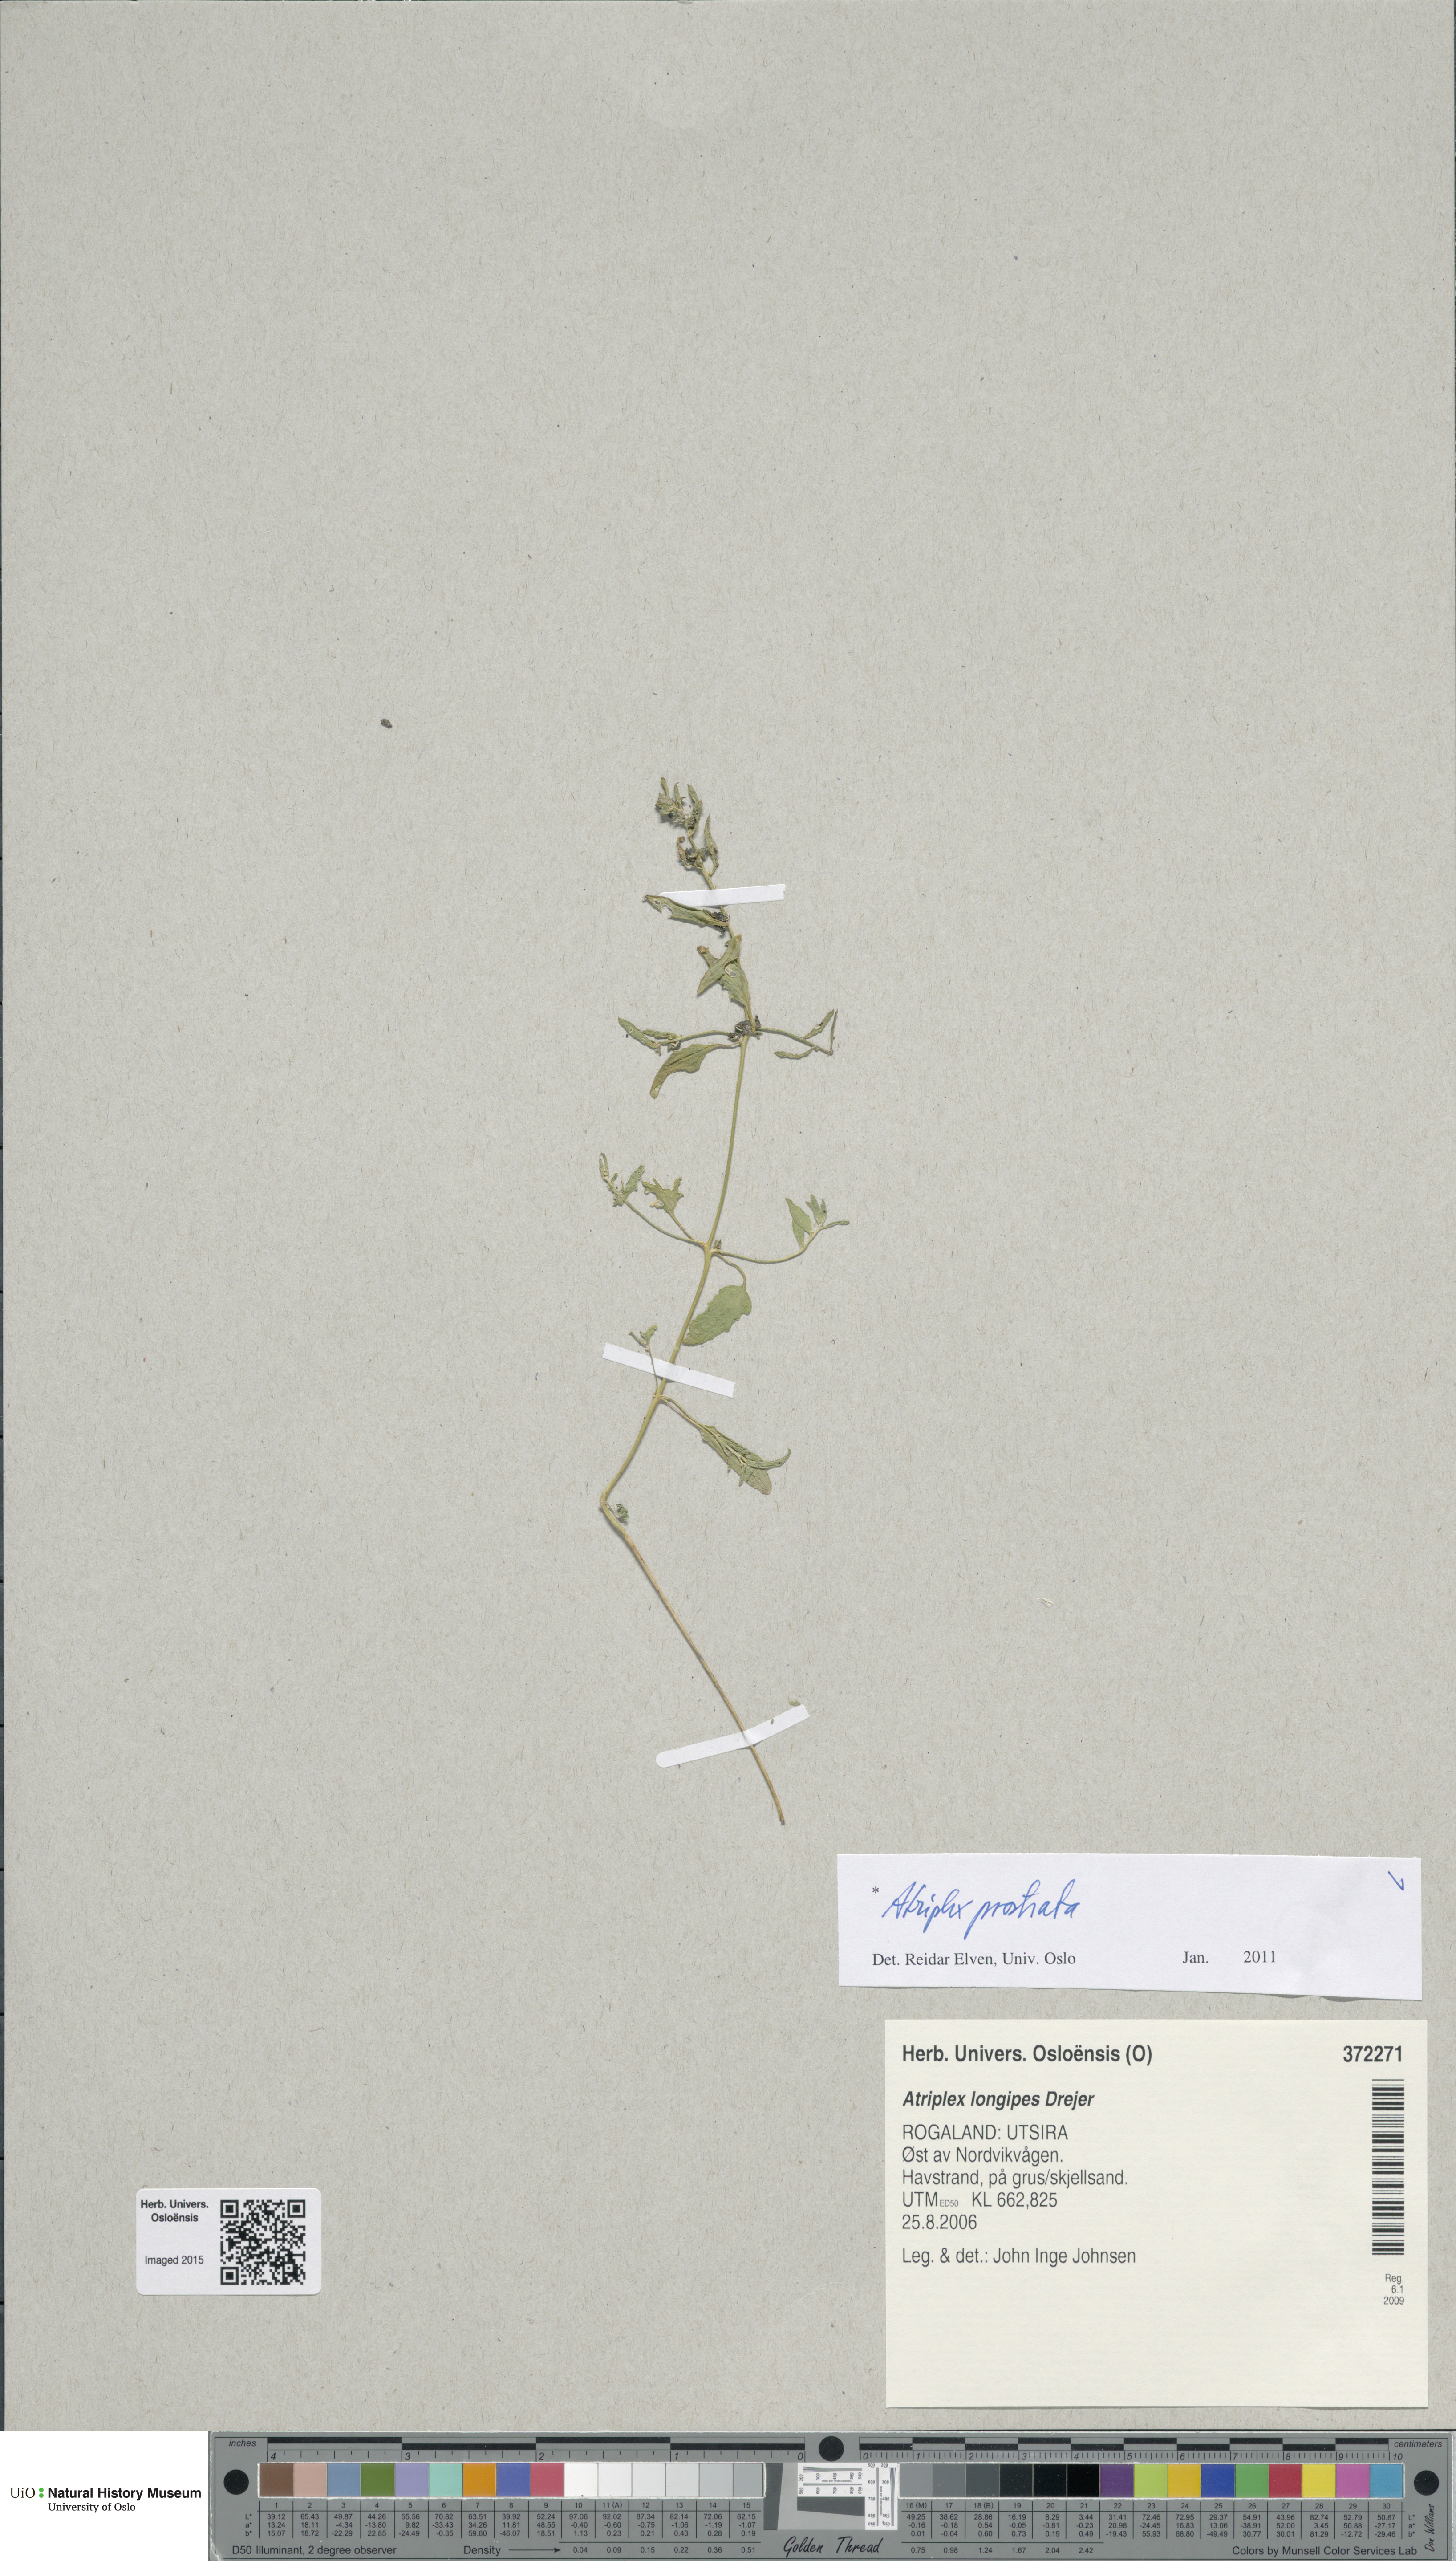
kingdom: Plantae
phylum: Tracheophyta
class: Magnoliopsida
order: Caryophyllales
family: Amaranthaceae
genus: Atriplex
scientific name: Atriplex prostrata
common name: Spear-leaved orache
